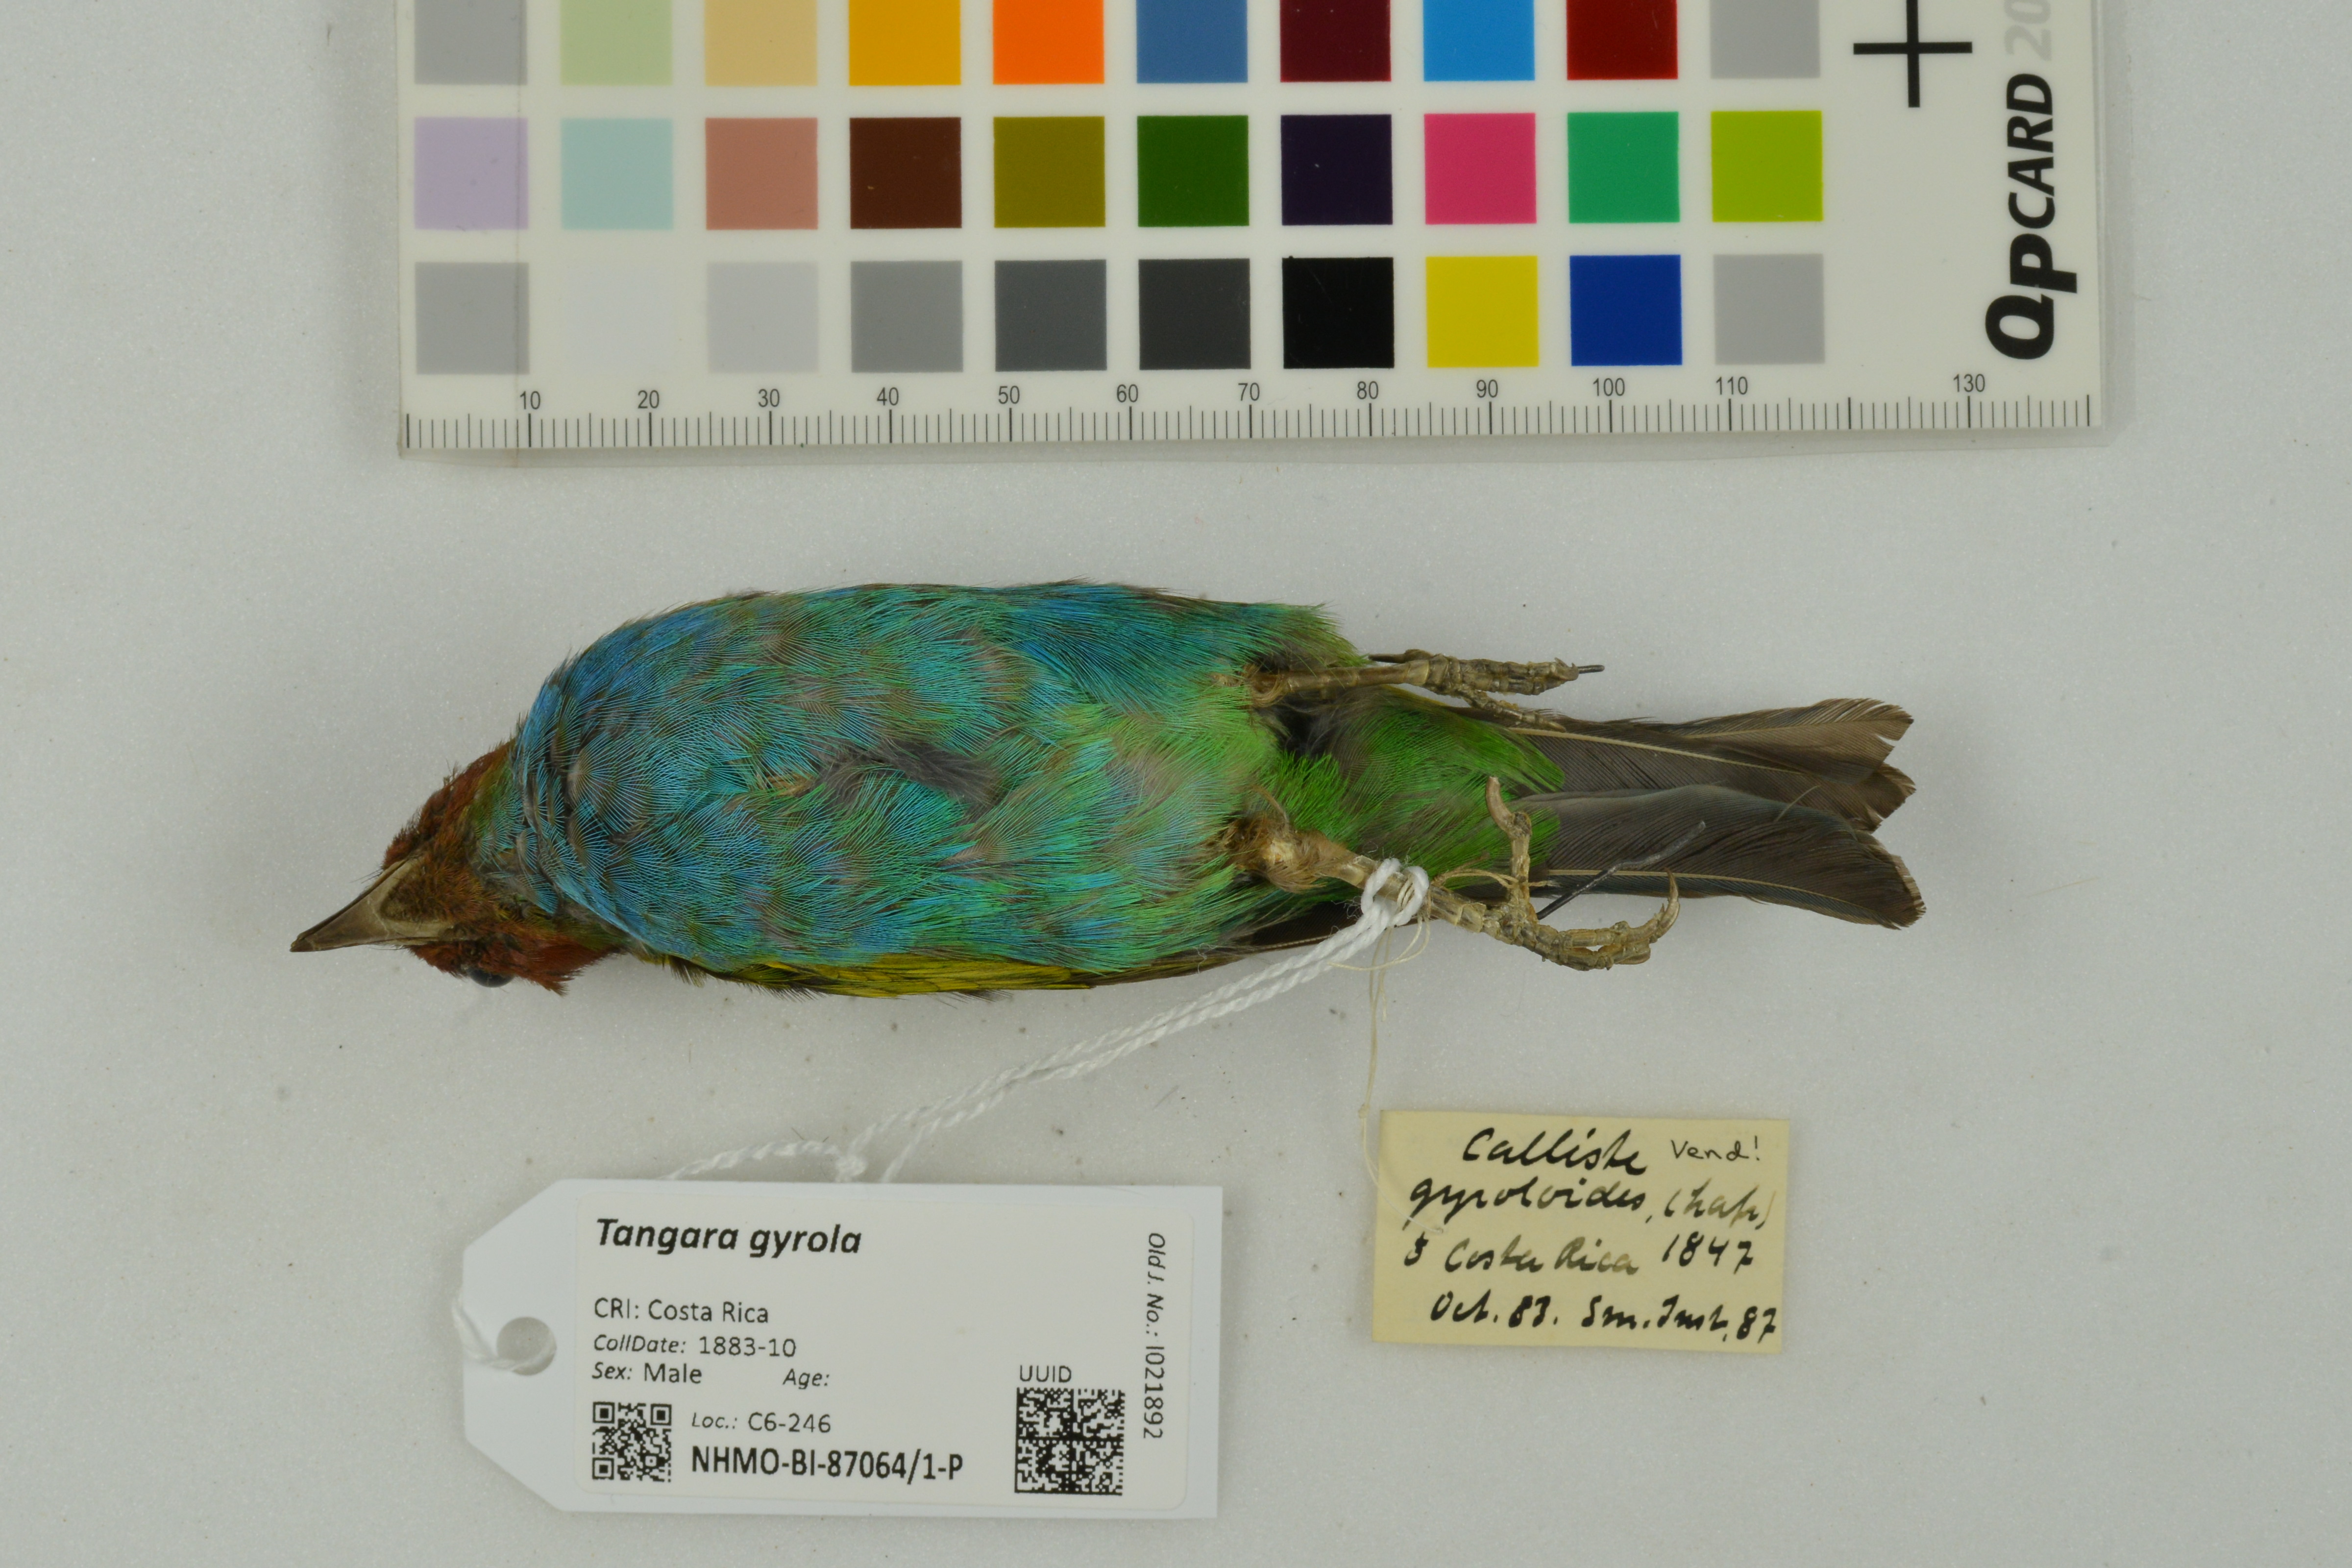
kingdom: Animalia
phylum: Chordata
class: Aves
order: Passeriformes
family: Thraupidae
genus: Tangara
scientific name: Tangara gyrola
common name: Bay-headed tanager
